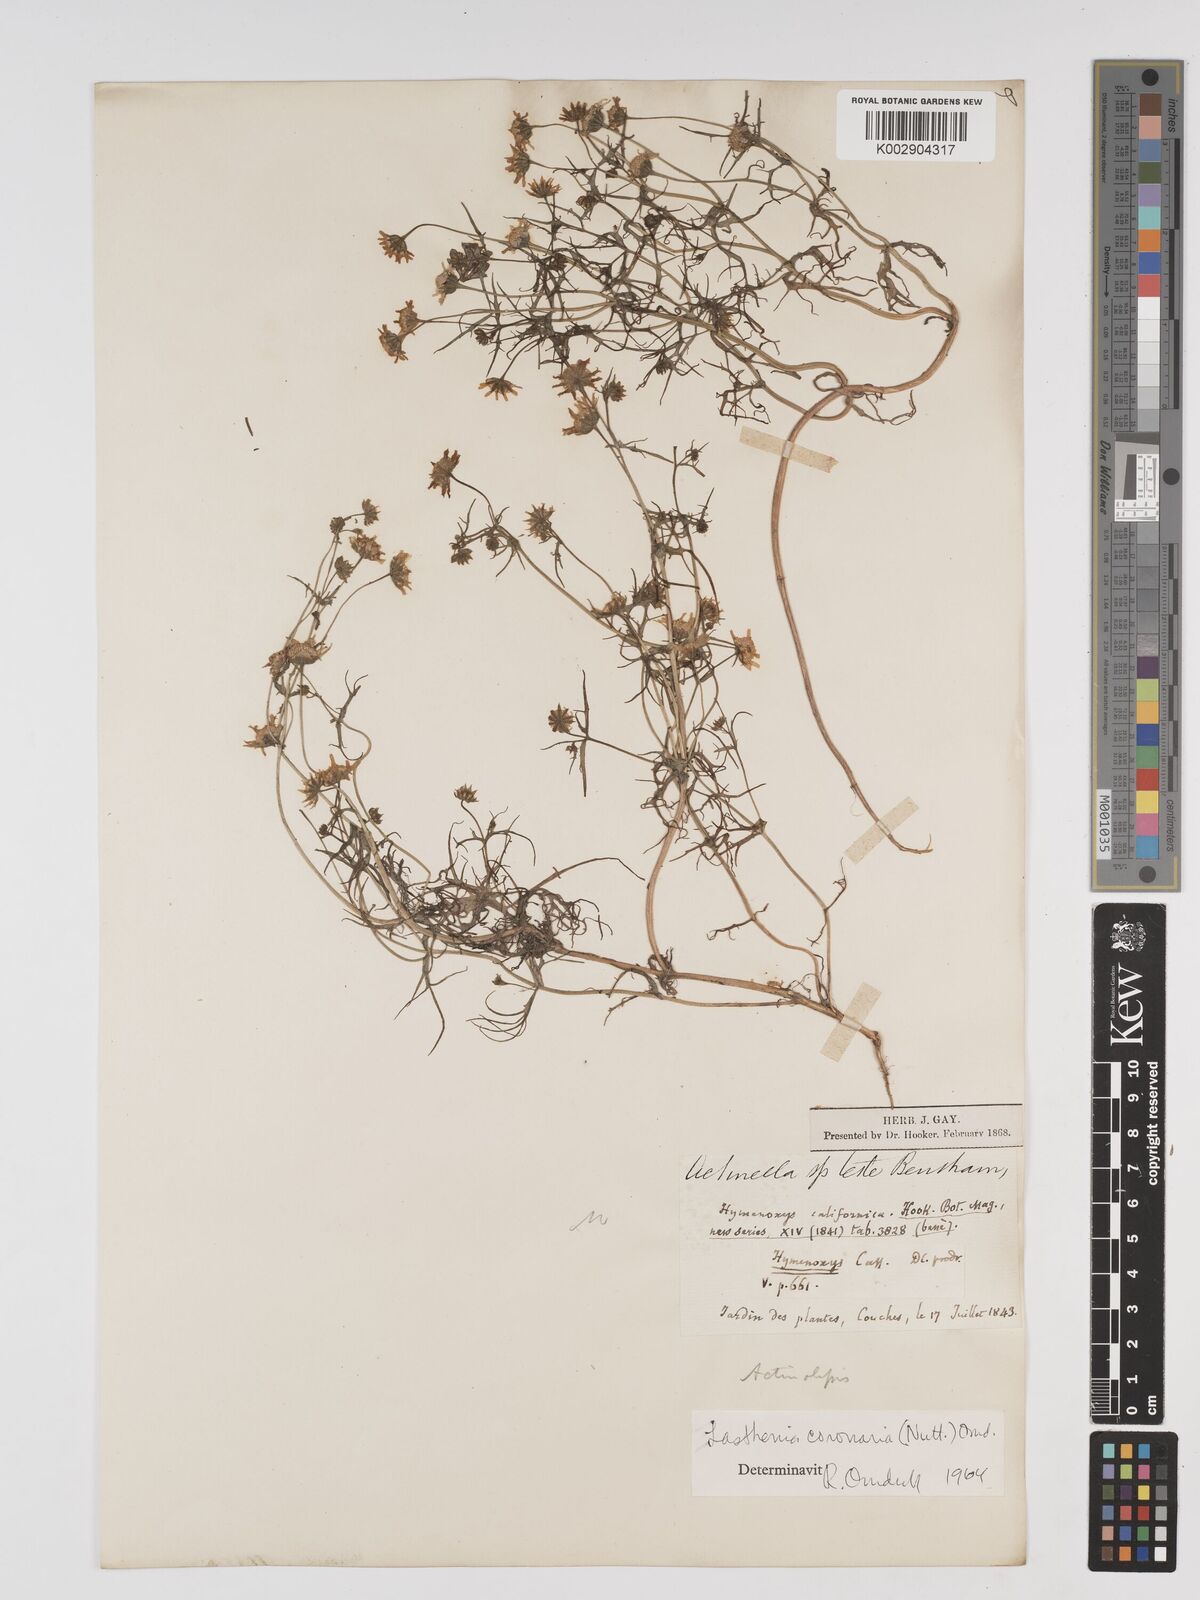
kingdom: Plantae
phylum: Tracheophyta
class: Magnoliopsida
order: Asterales
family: Asteraceae
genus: Lasthenia
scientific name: Lasthenia coronaria
